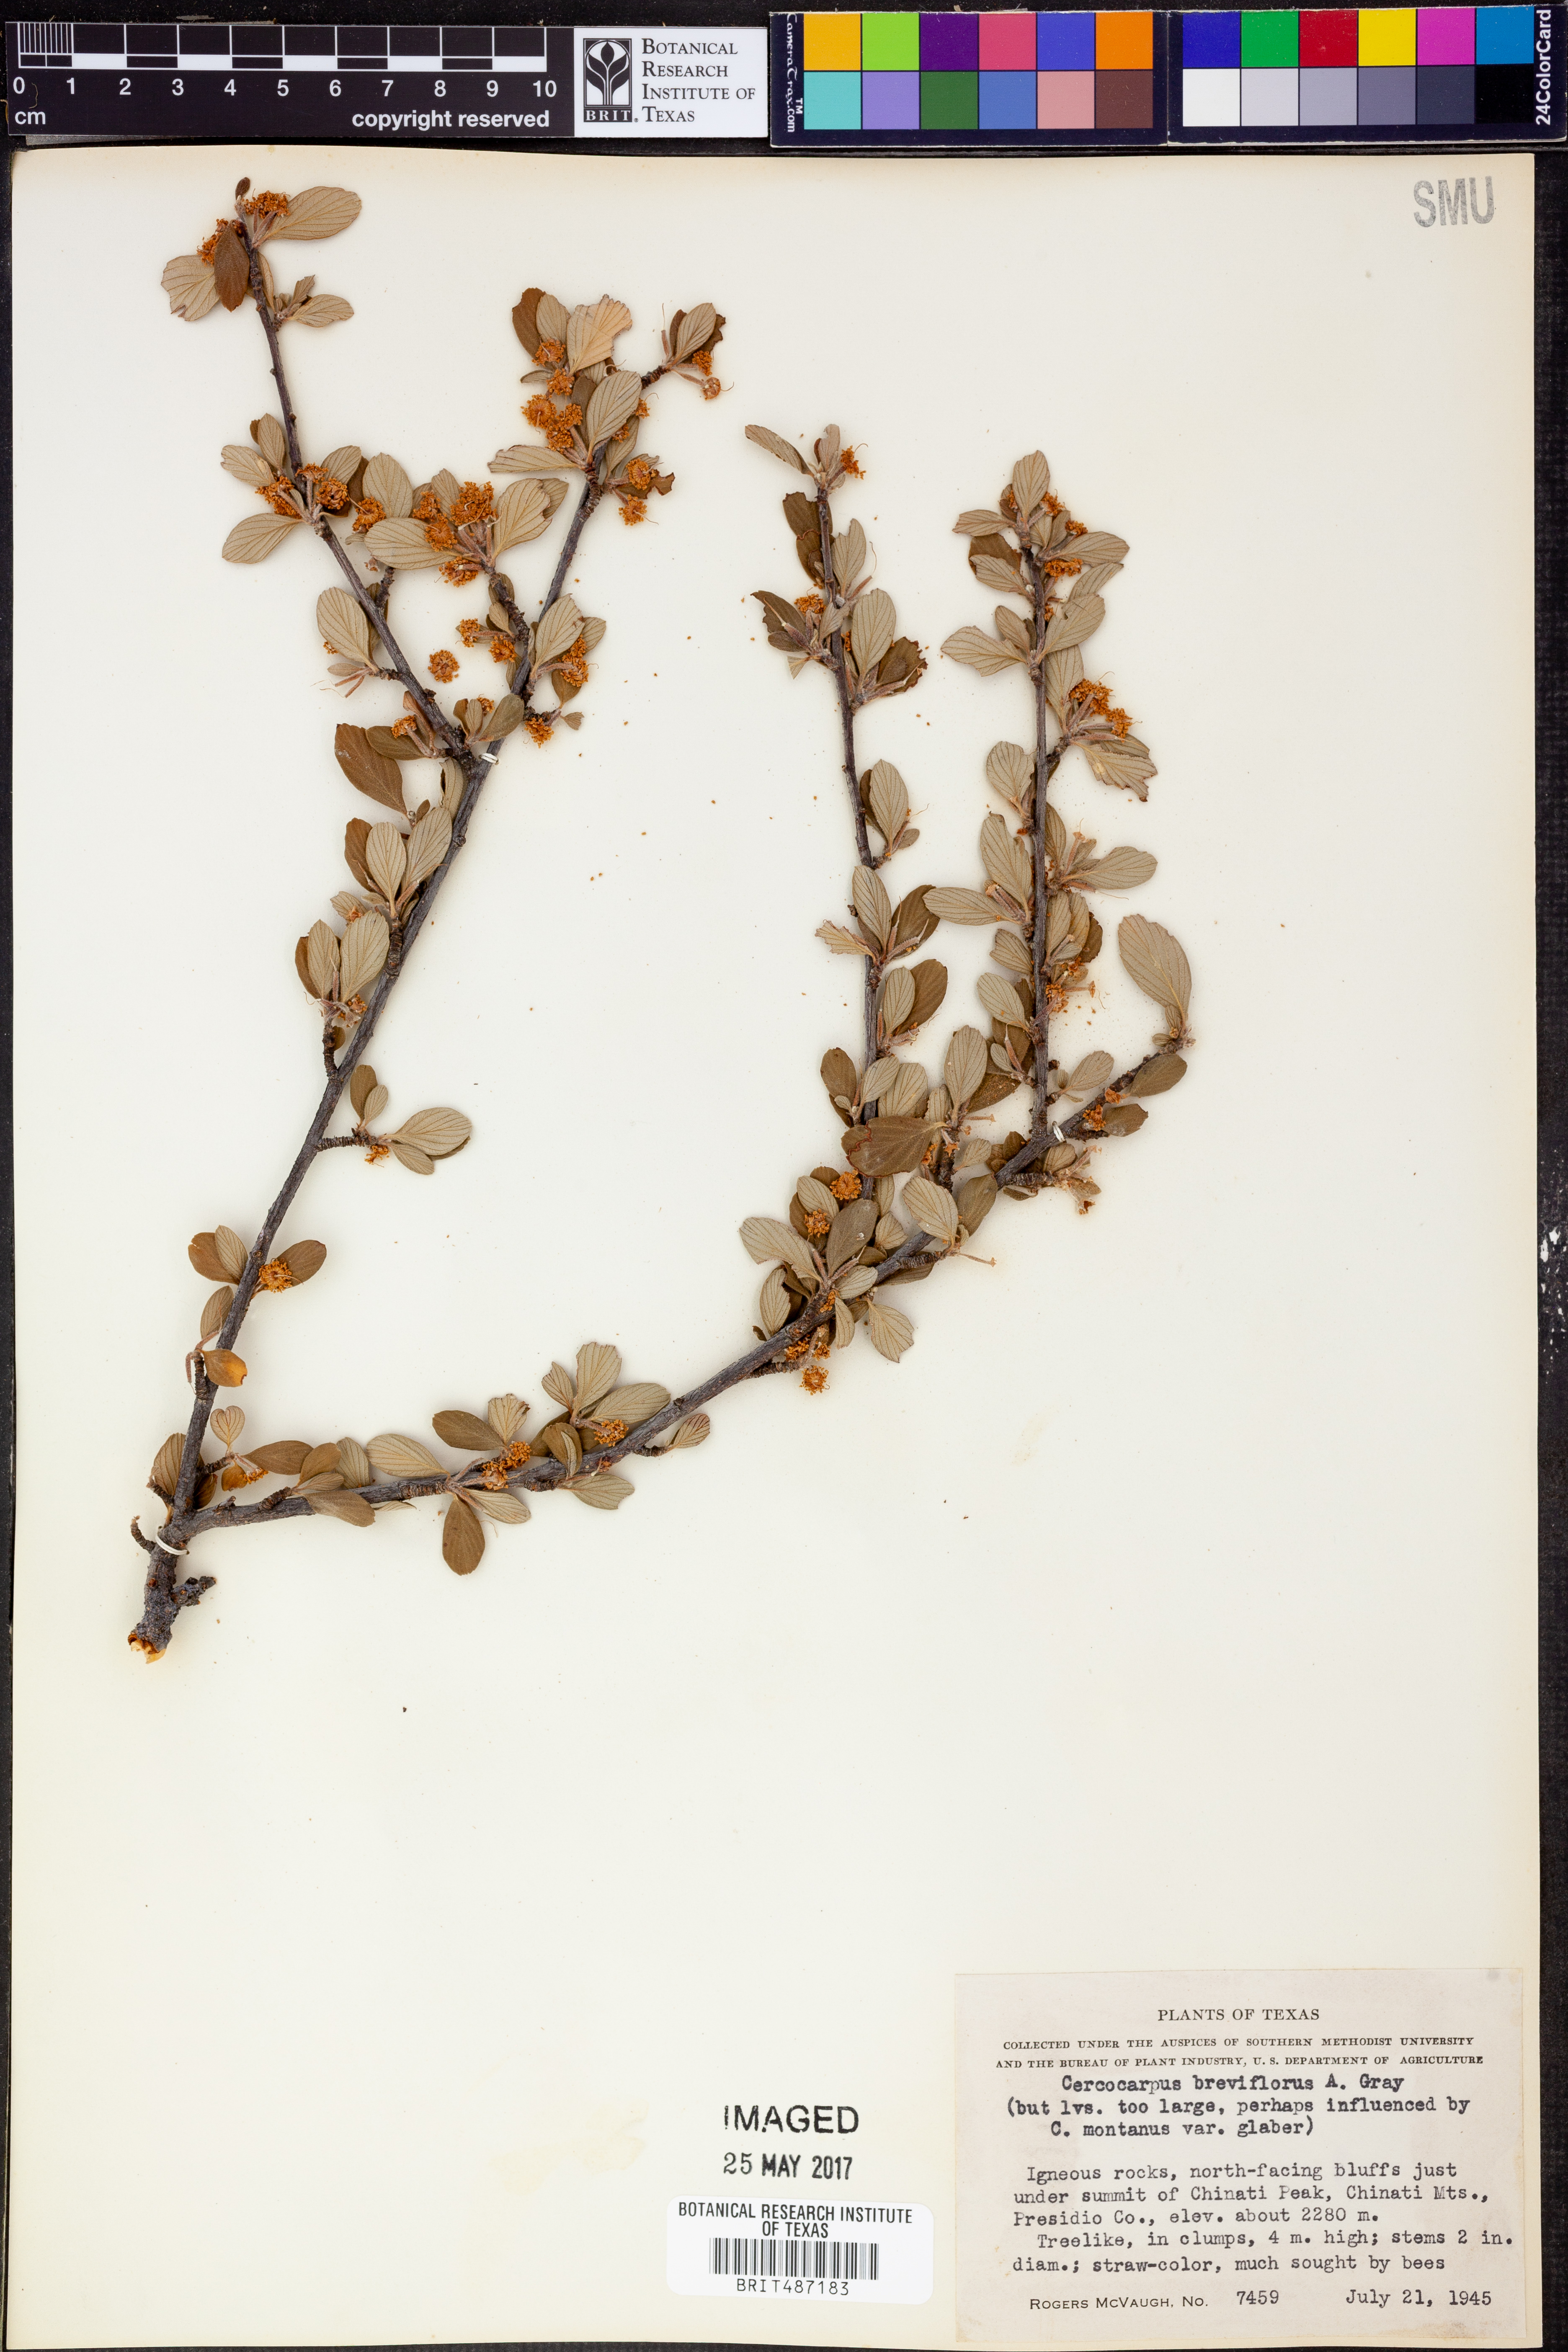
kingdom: Plantae
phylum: Tracheophyta
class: Magnoliopsida
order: Rosales
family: Rosaceae
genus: Cercocarpus
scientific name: Cercocarpus breviflorus
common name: Wright's mountain-mahogany
